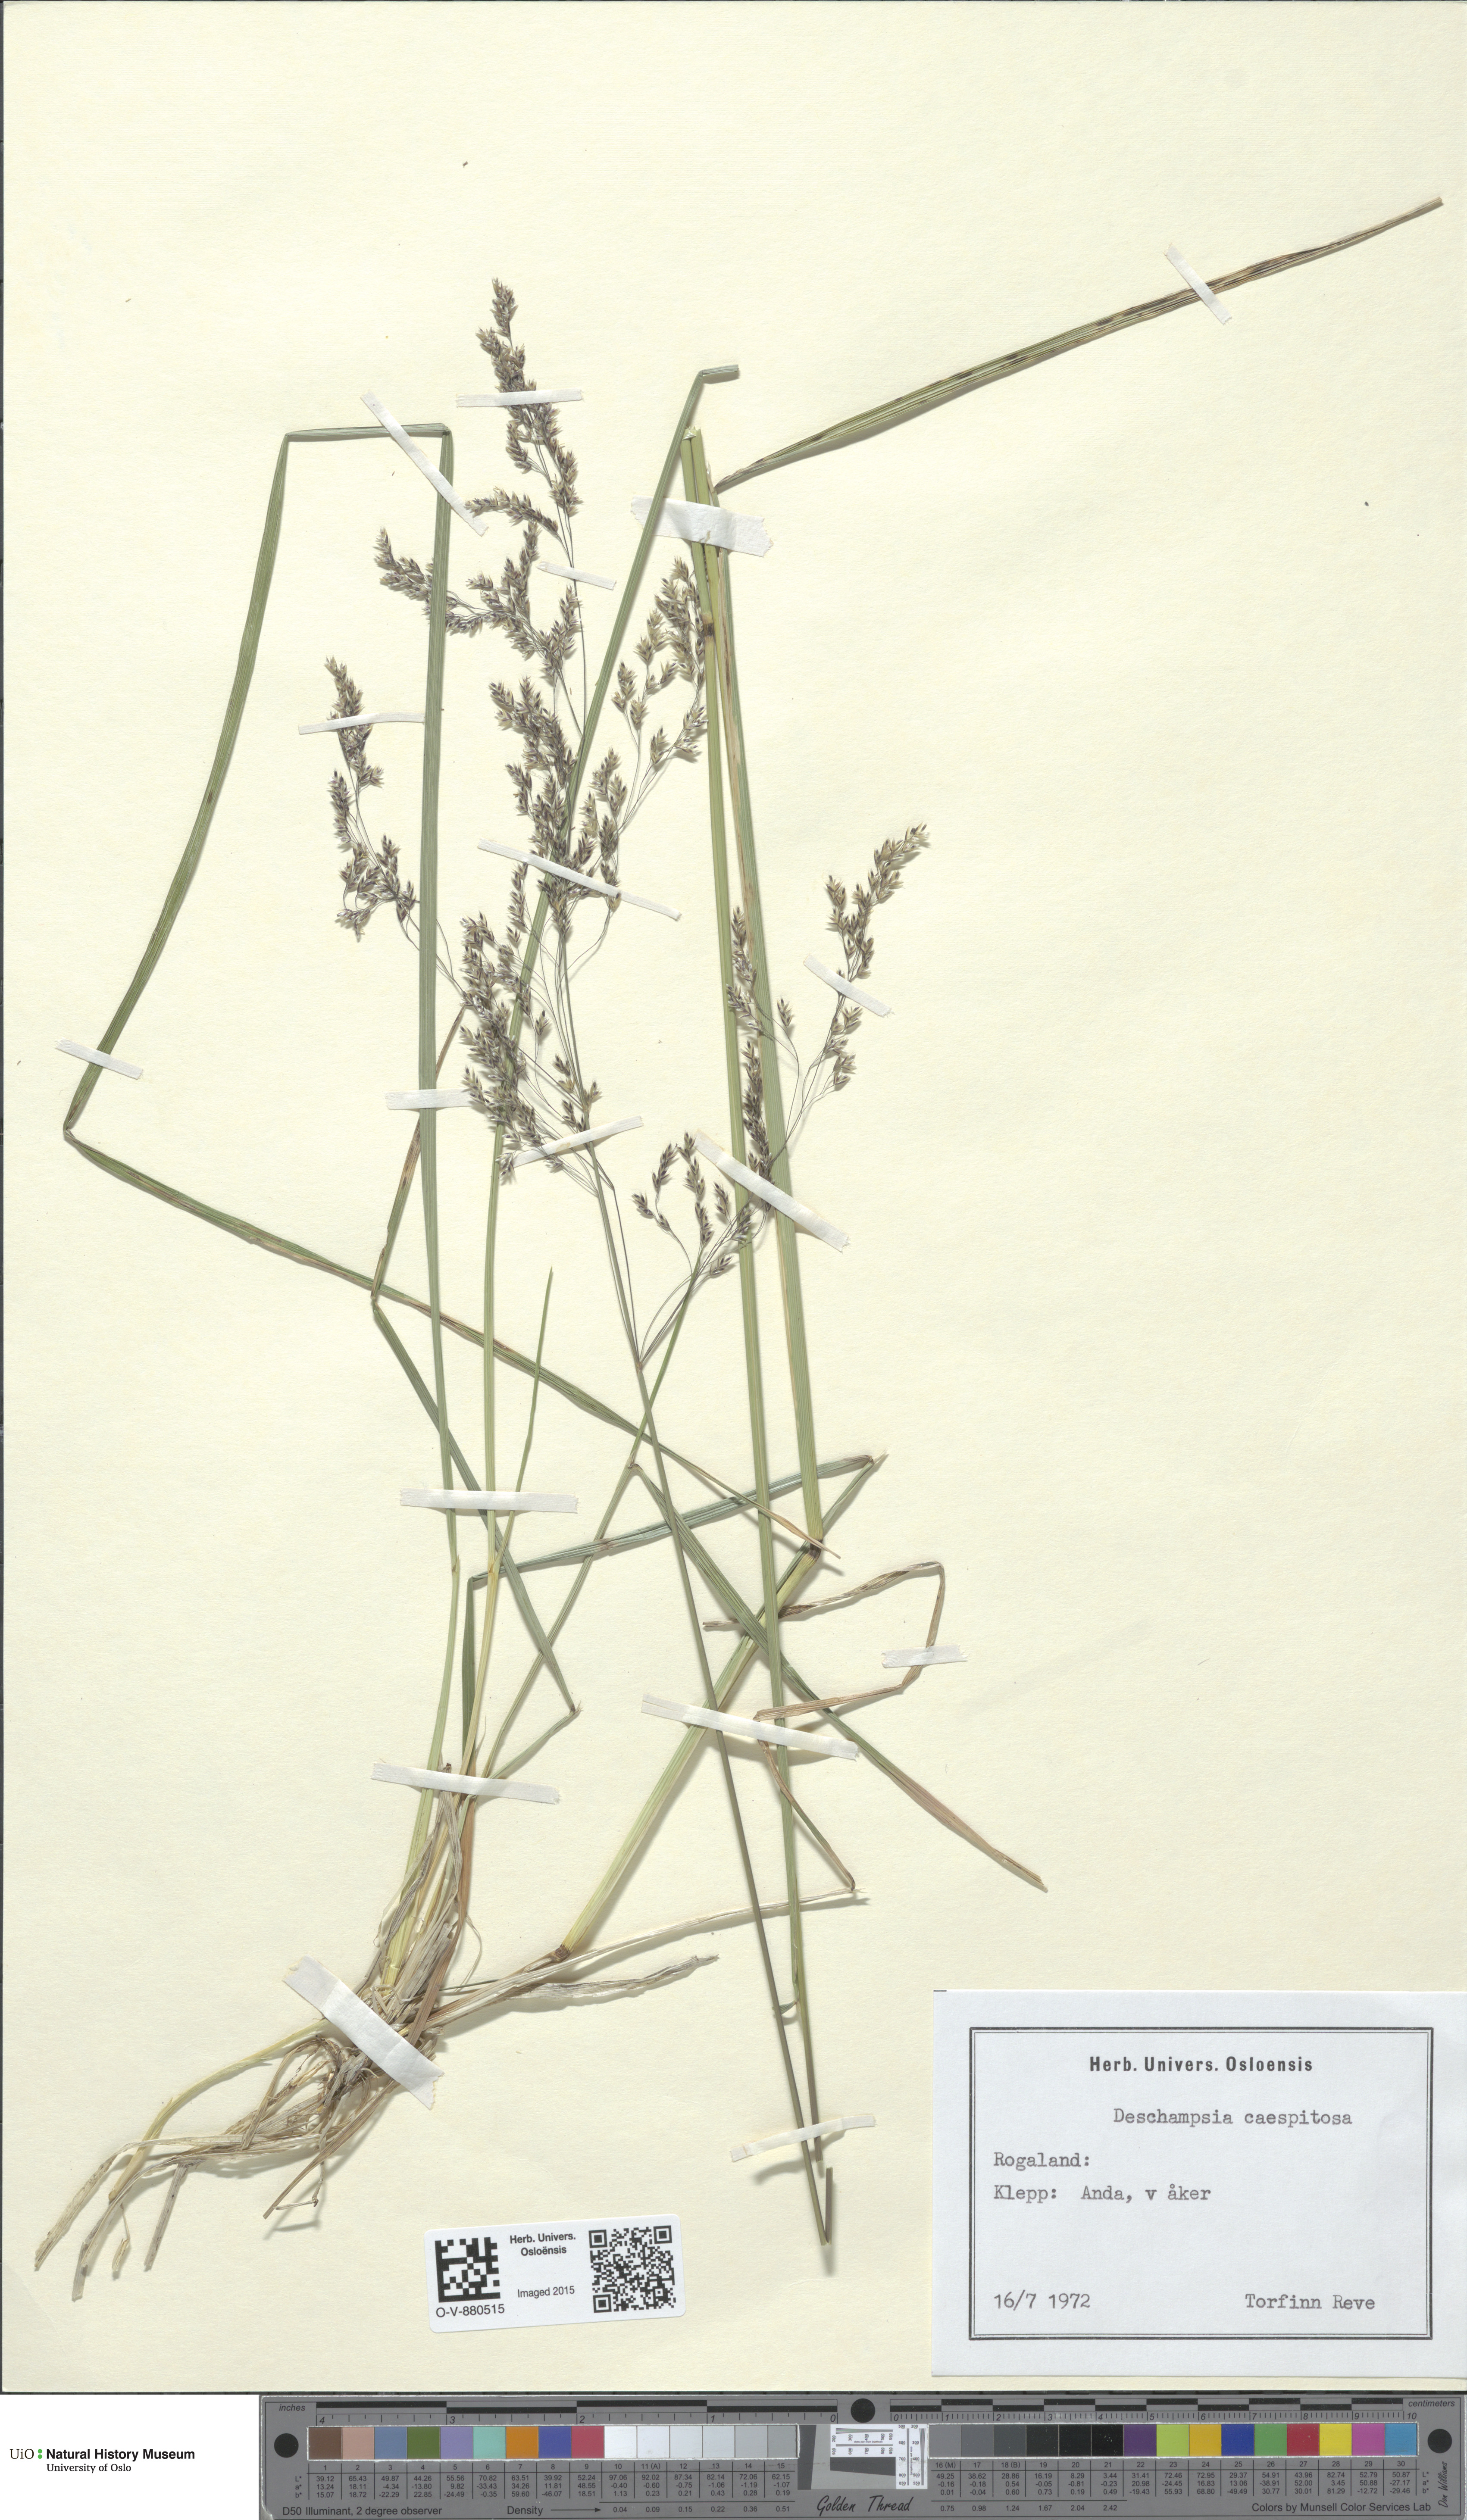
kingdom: Plantae
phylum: Tracheophyta
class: Liliopsida
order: Poales
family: Poaceae
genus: Deschampsia
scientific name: Deschampsia cespitosa
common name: Tufted hair-grass
